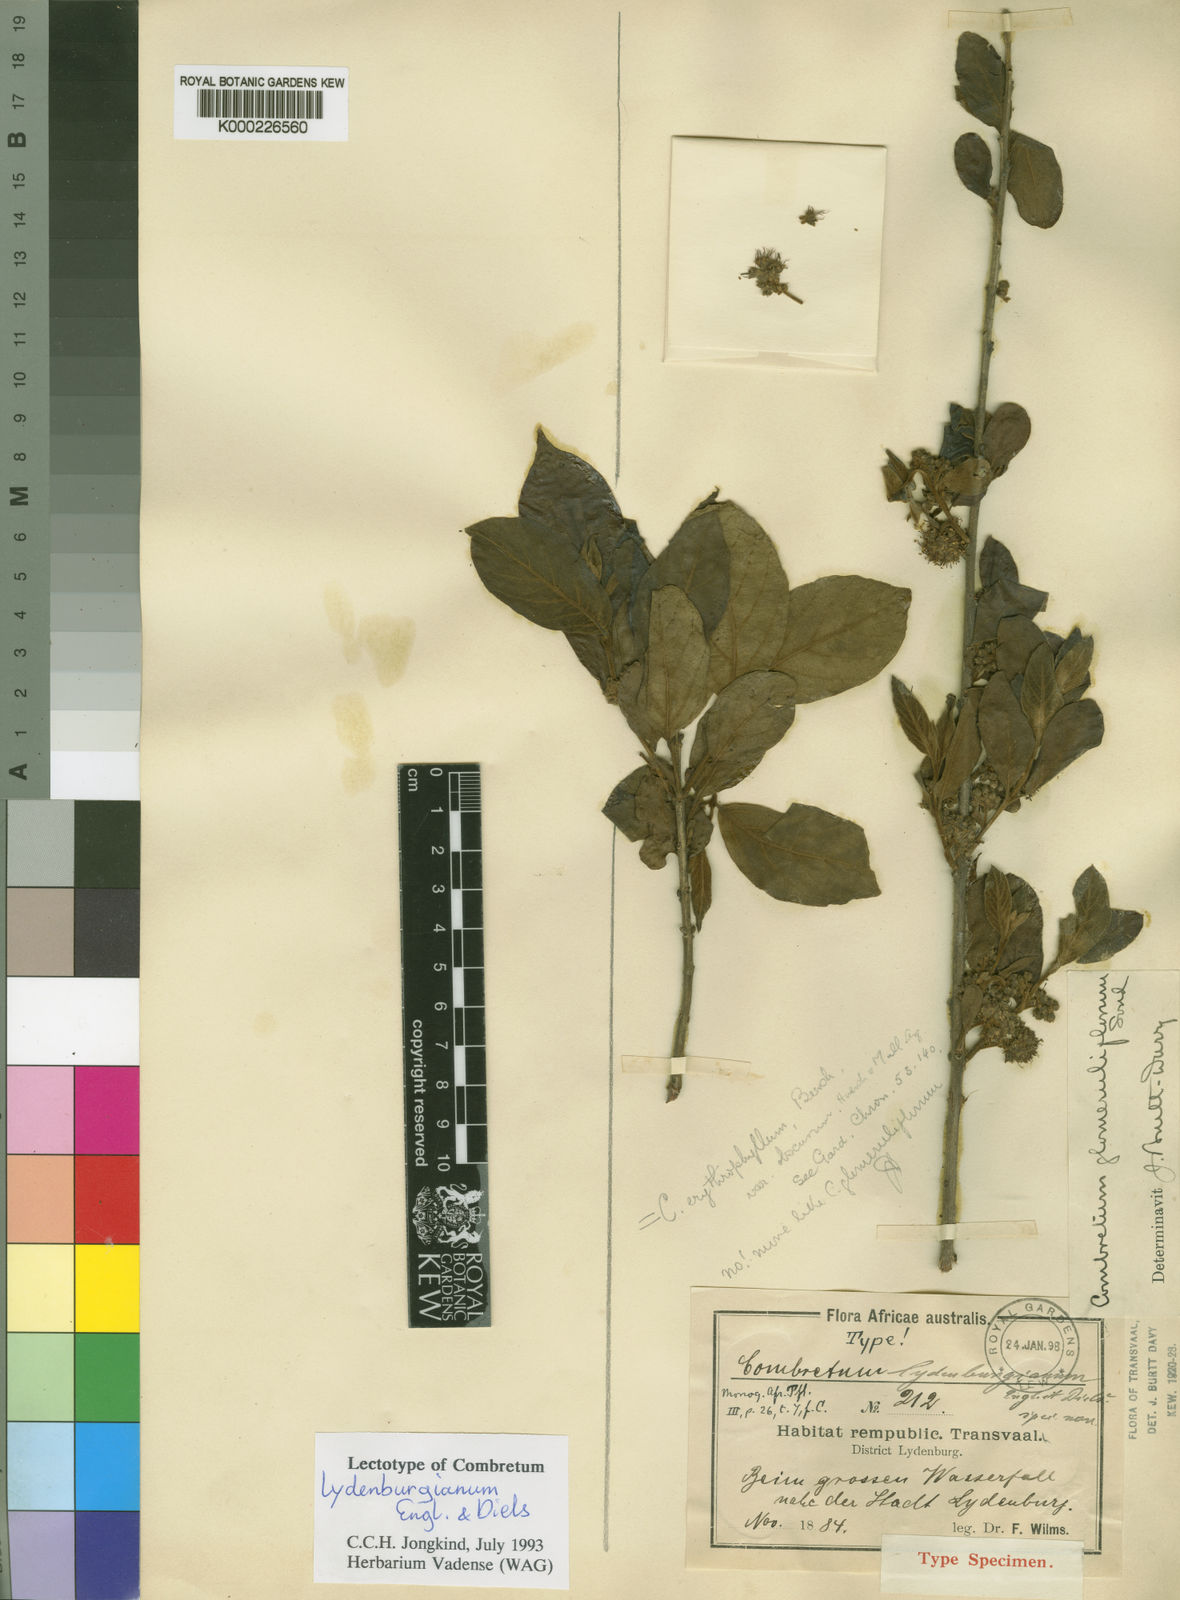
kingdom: Plantae
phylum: Tracheophyta
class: Magnoliopsida
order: Myrtales
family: Combretaceae
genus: Combretum
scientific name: Combretum erythrophyllum
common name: Bush-willow
